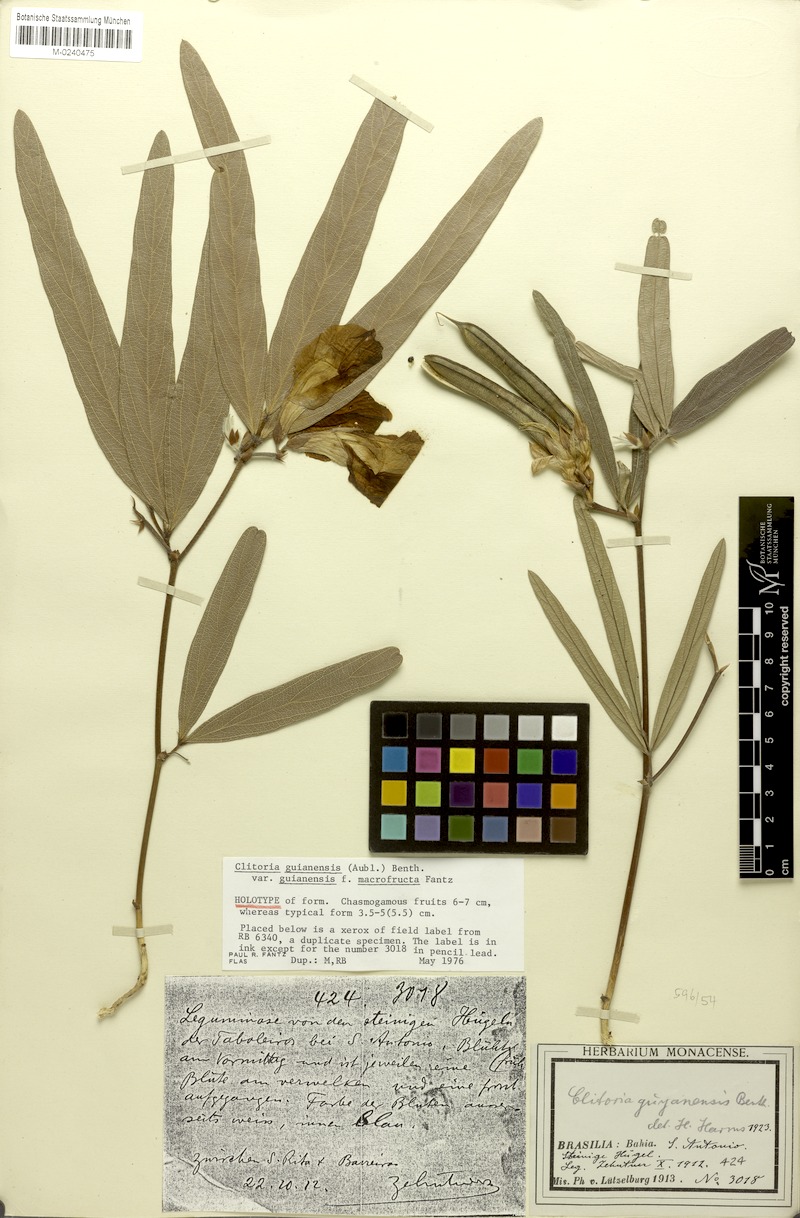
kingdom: Plantae
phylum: Tracheophyta
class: Magnoliopsida
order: Fabales
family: Fabaceae
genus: Clitoria
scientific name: Clitoria guianensis
